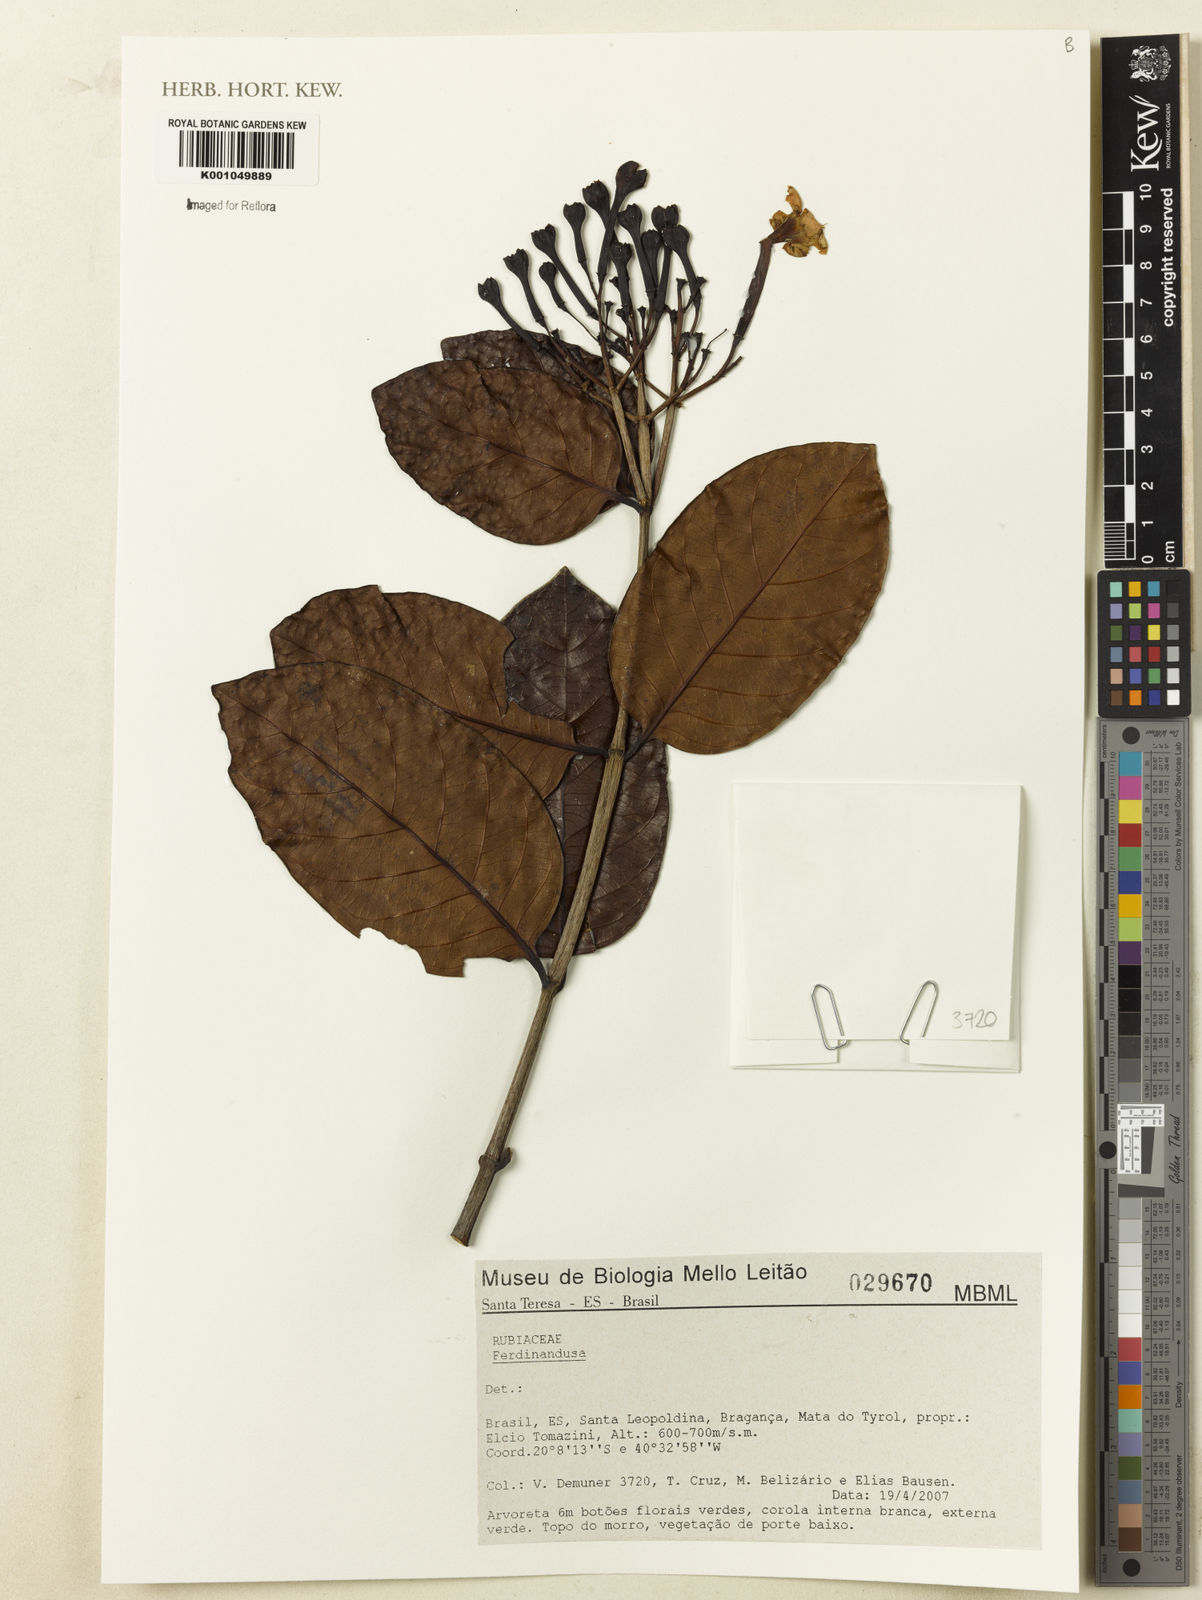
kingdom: Plantae
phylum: Tracheophyta
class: Magnoliopsida
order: Gentianales
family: Rubiaceae
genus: Ferdinandusa
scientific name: Ferdinandusa
